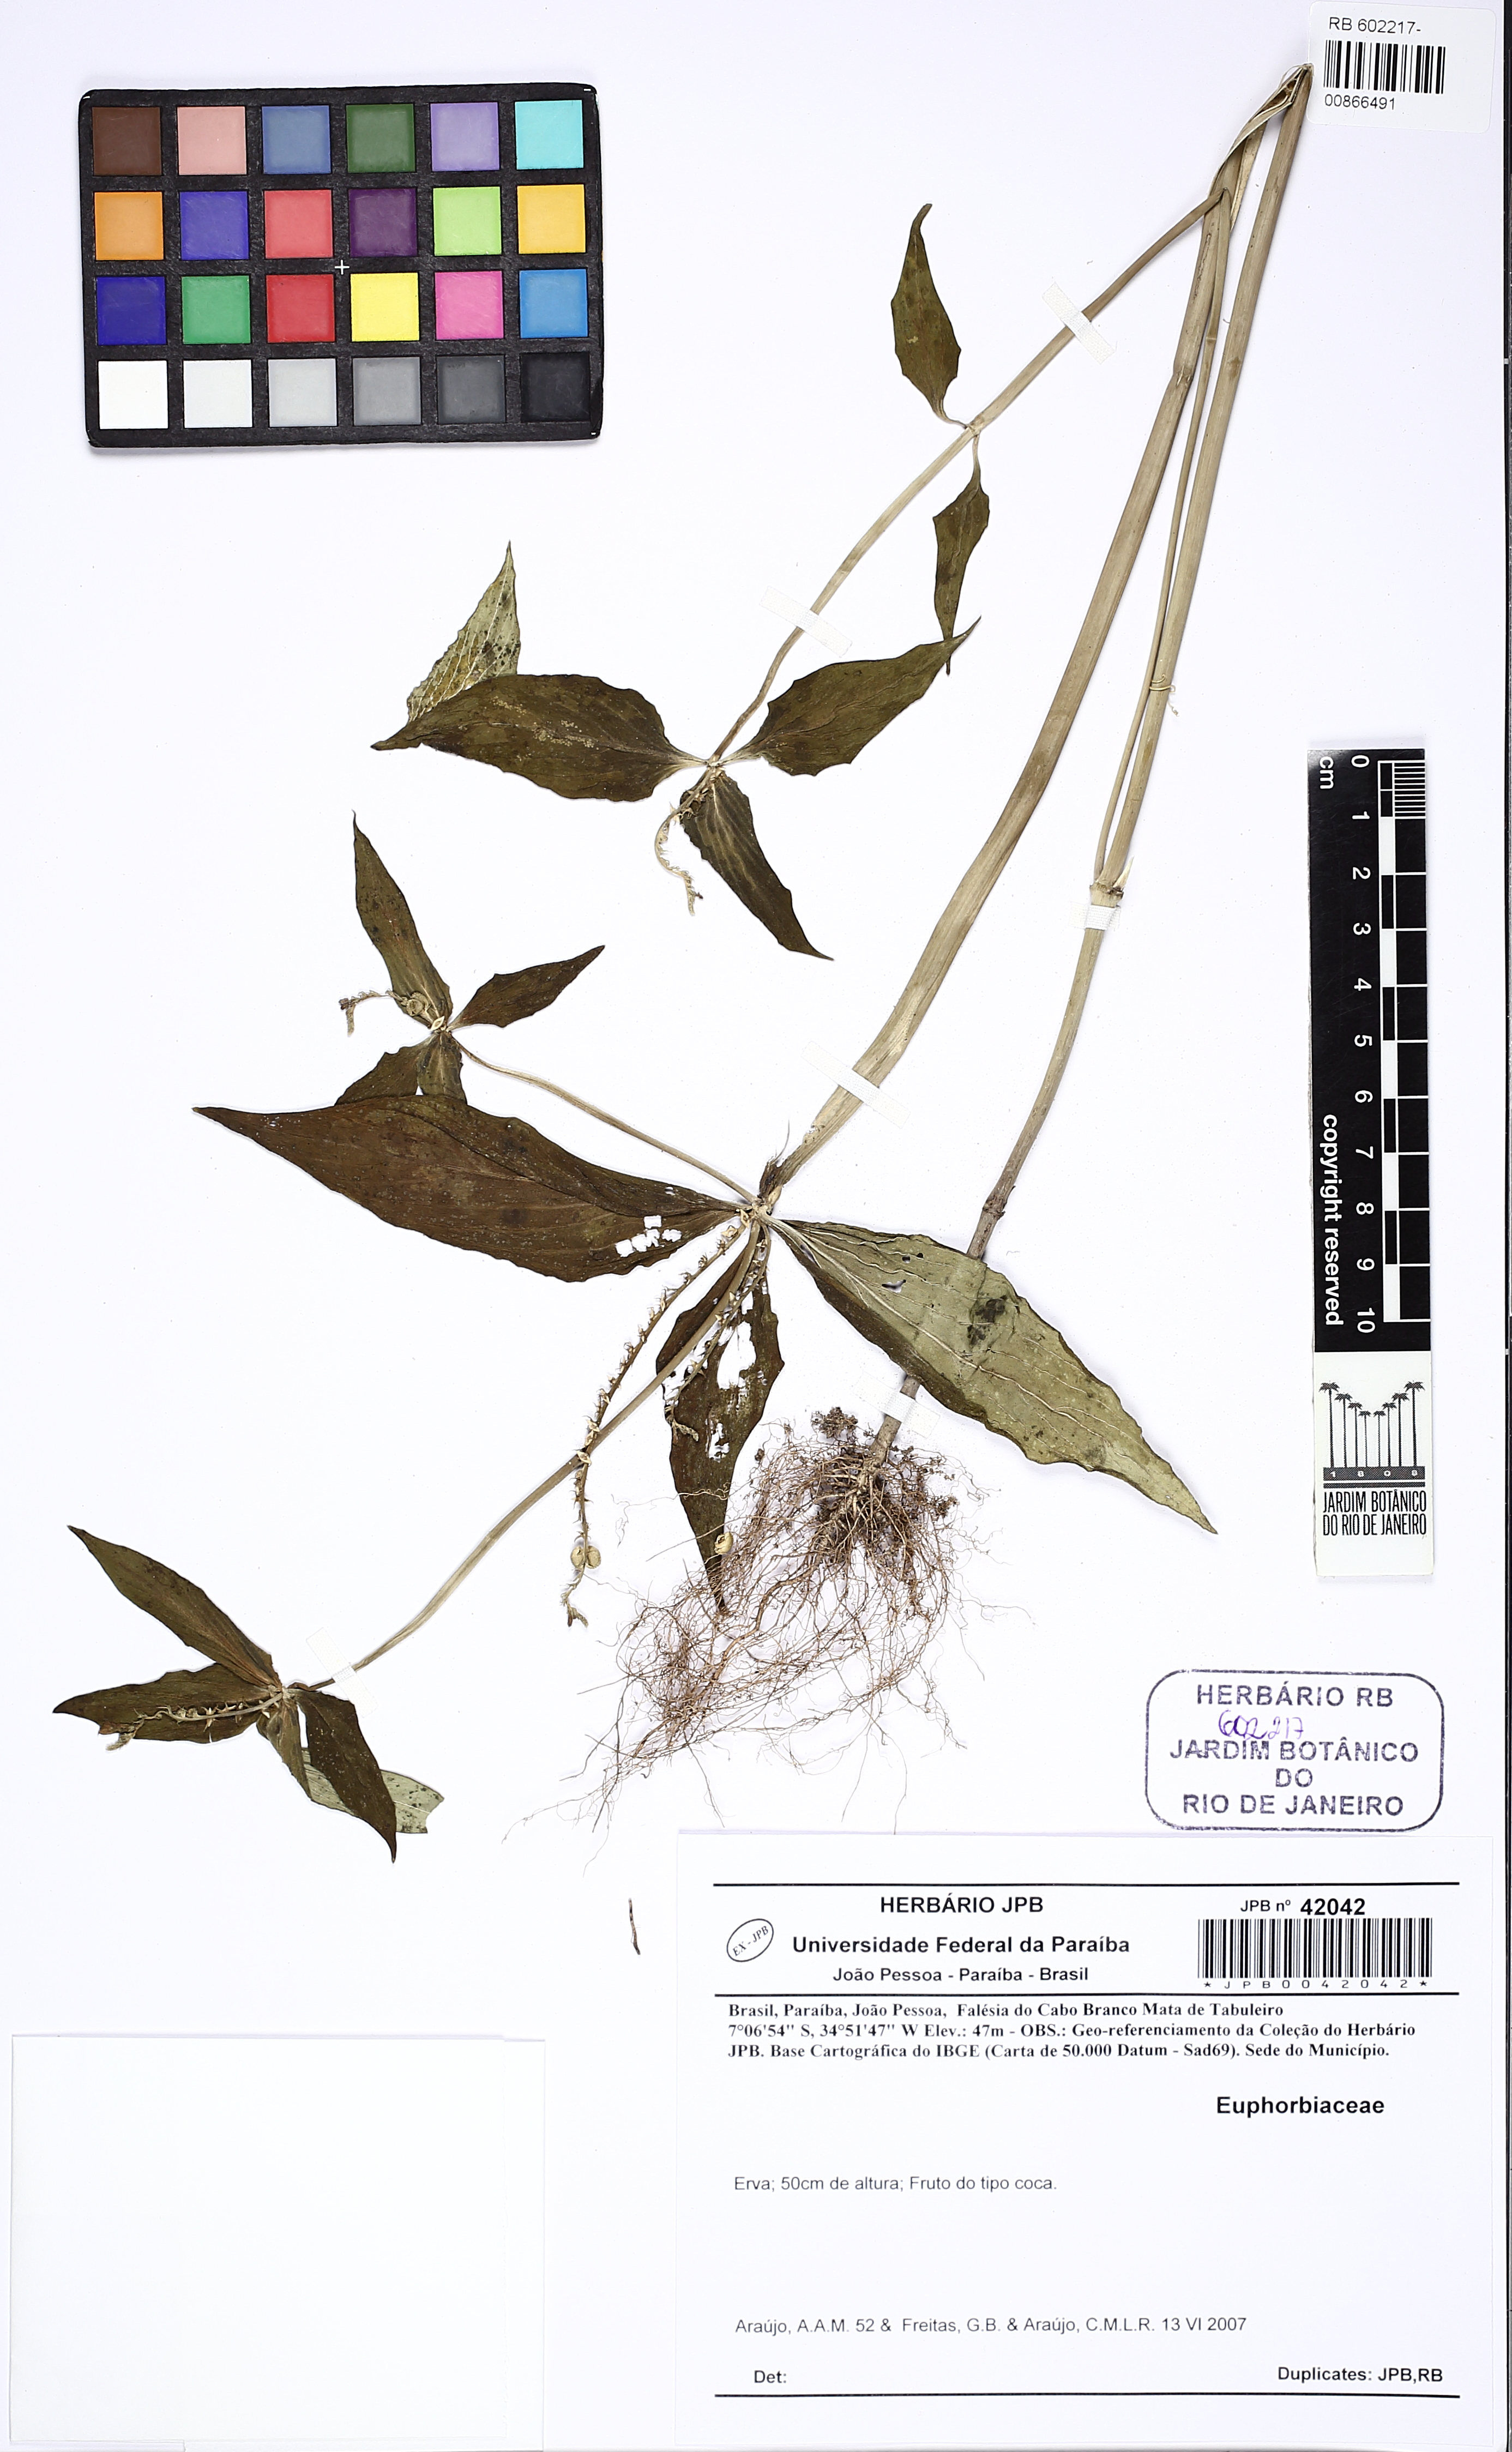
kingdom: Plantae
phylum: Tracheophyta
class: Magnoliopsida
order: Gentianales
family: Loganiaceae
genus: Spigelia
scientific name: Spigelia anthelmia
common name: West indian-pink
